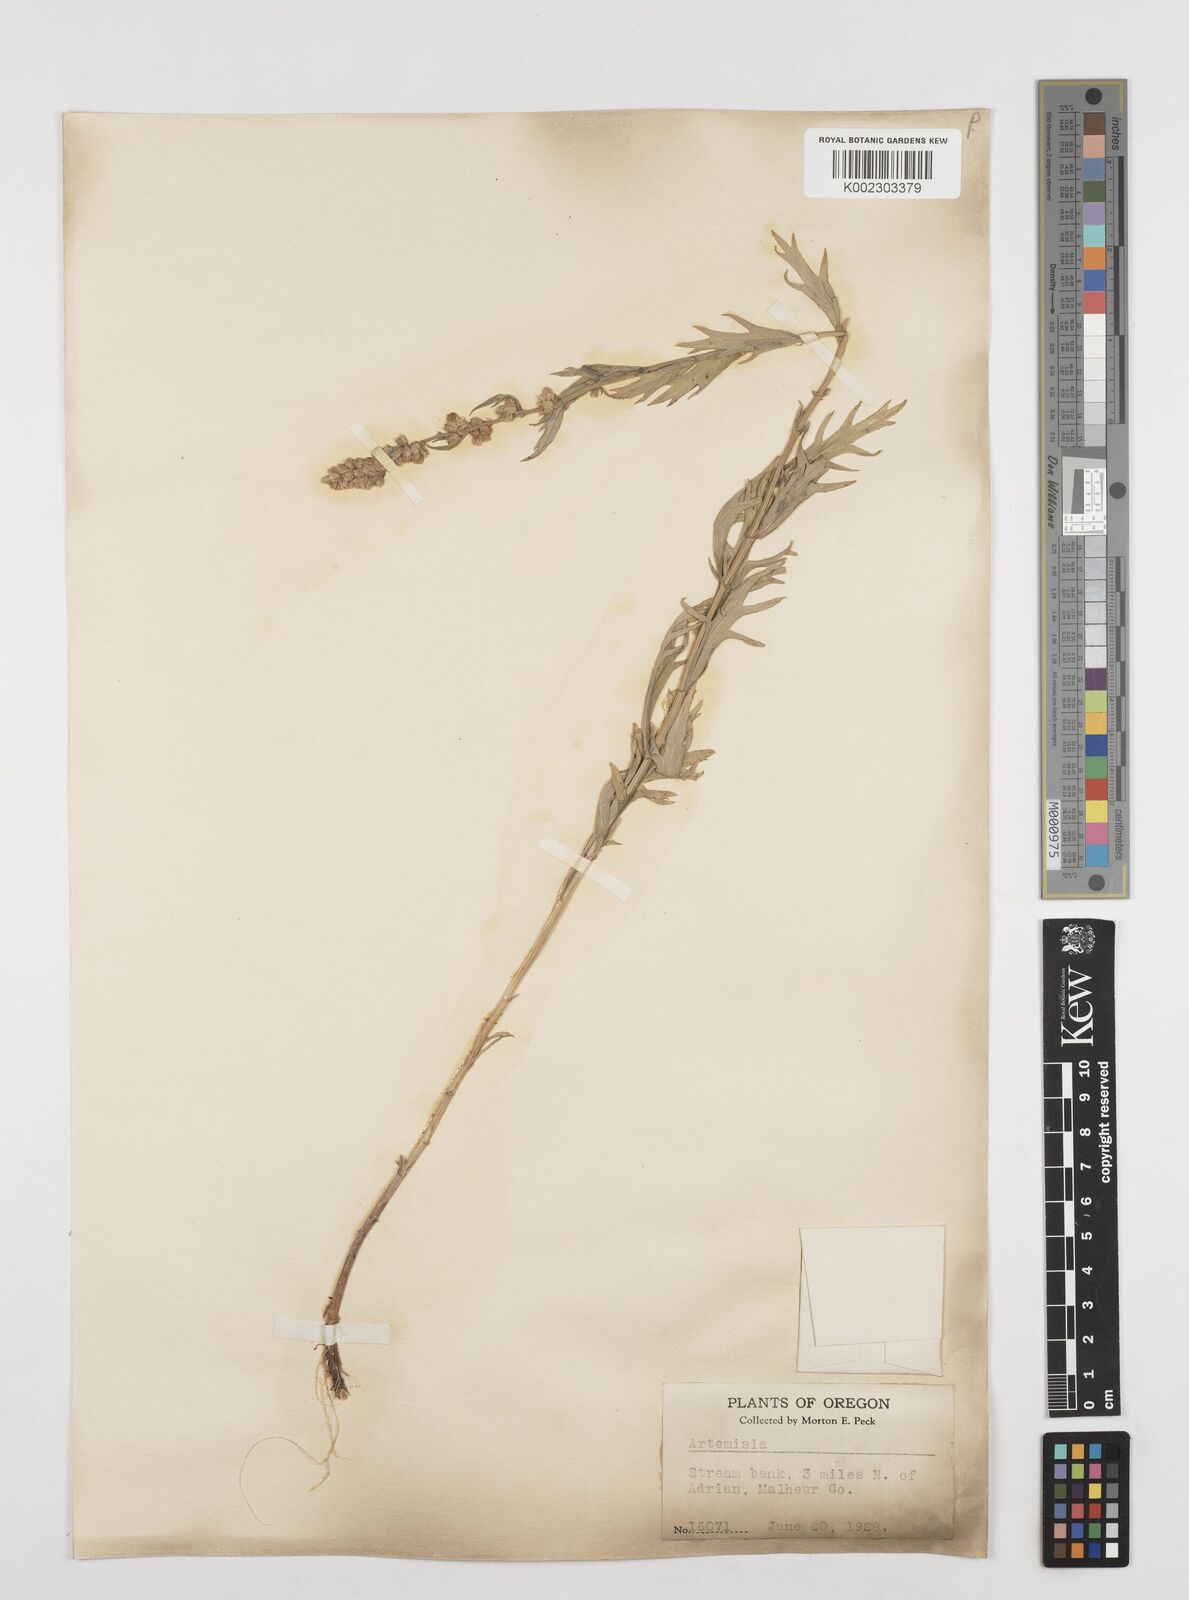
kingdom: Plantae
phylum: Tracheophyta
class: Magnoliopsida
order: Asterales
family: Asteraceae
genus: Artemisia
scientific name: Artemisia
